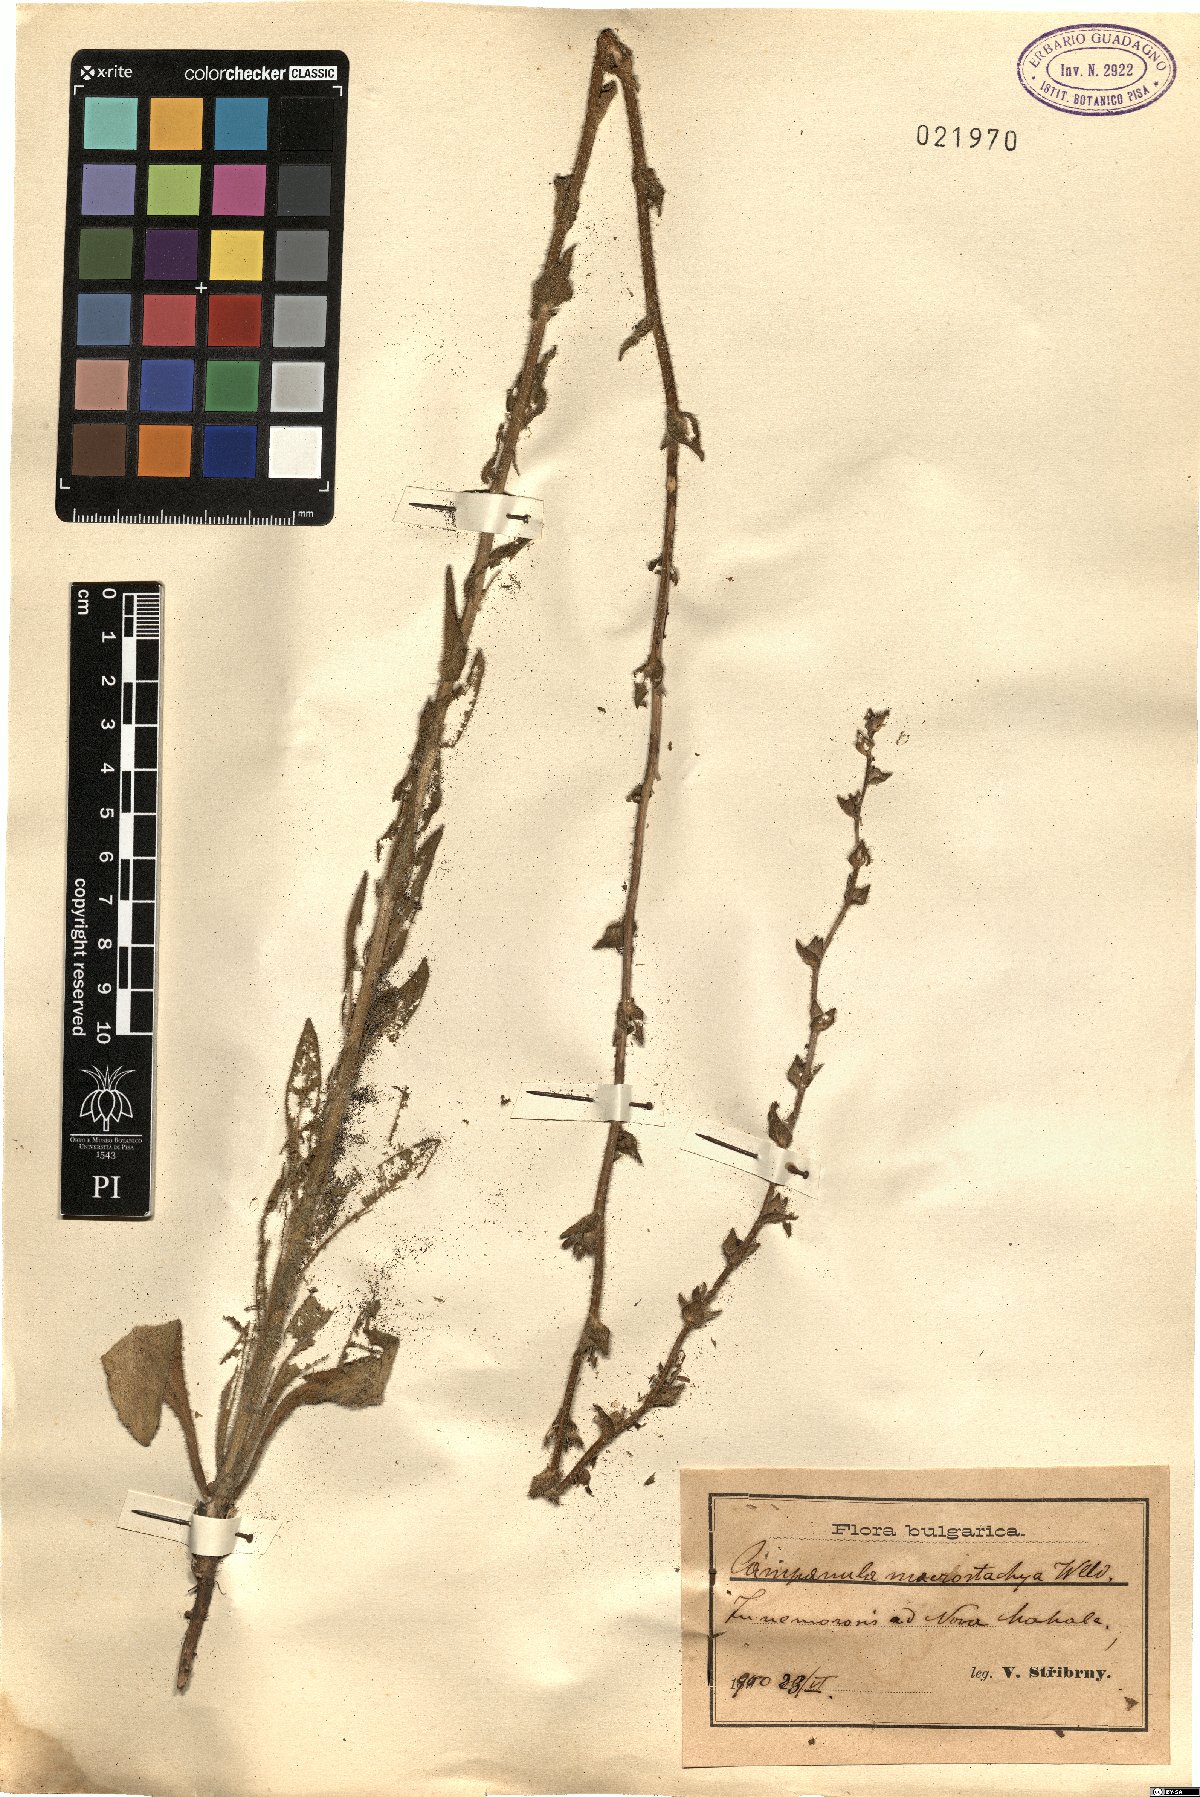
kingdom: Plantae
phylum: Tracheophyta
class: Magnoliopsida
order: Asterales
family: Campanulaceae
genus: Campanula
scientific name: Campanula macrostachya
